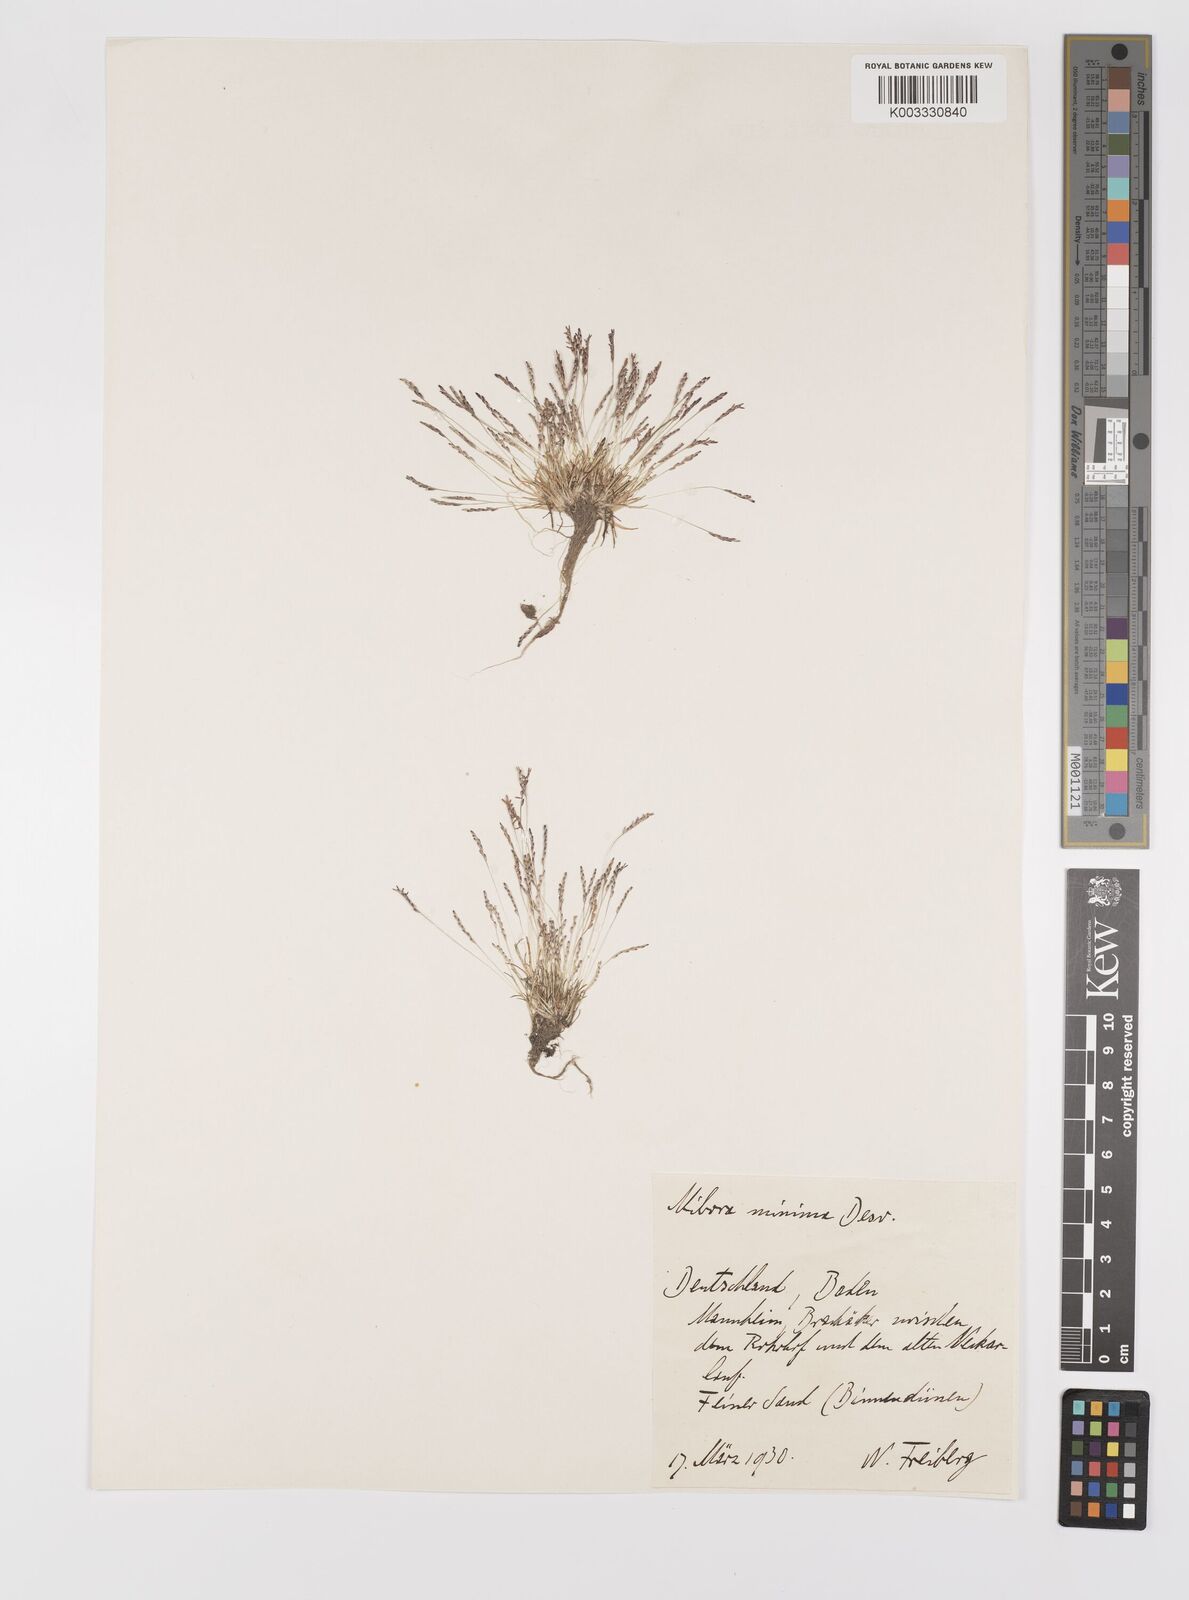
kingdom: Plantae
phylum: Tracheophyta
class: Liliopsida
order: Poales
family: Poaceae
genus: Mibora
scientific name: Mibora minima
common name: Early sand-grass
